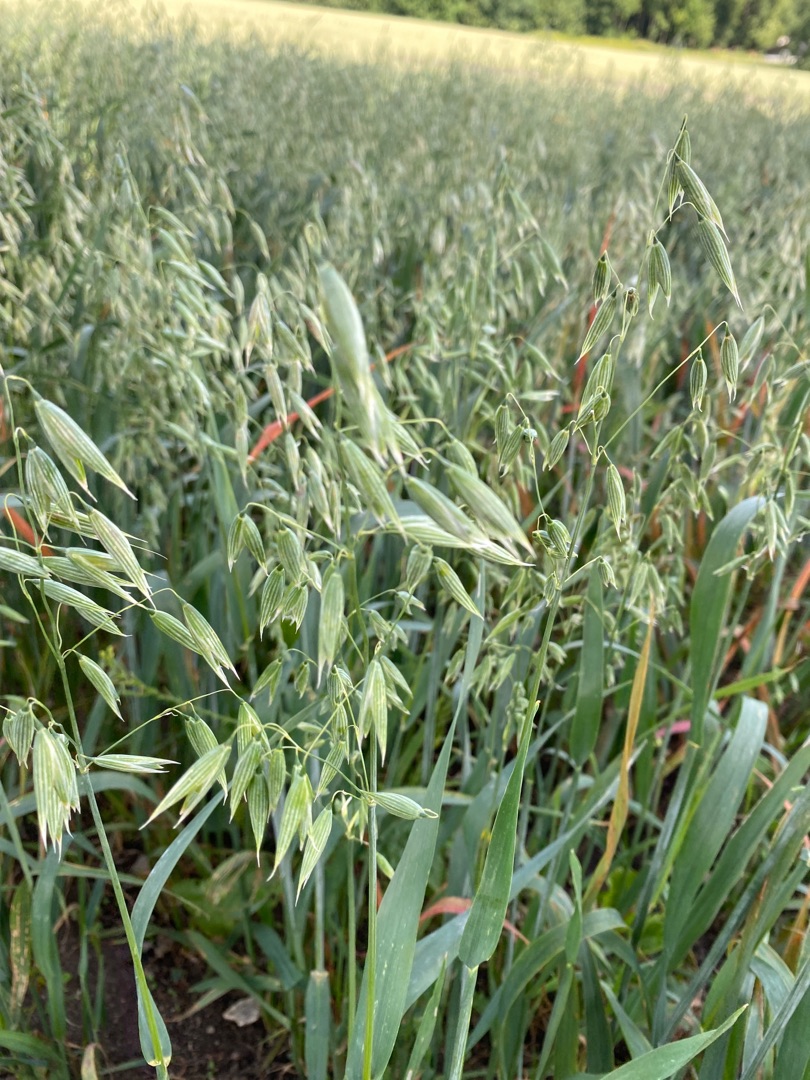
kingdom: Plantae
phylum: Tracheophyta
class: Liliopsida
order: Poales
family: Poaceae
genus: Avena
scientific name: Avena sativa
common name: Almindelig havre
